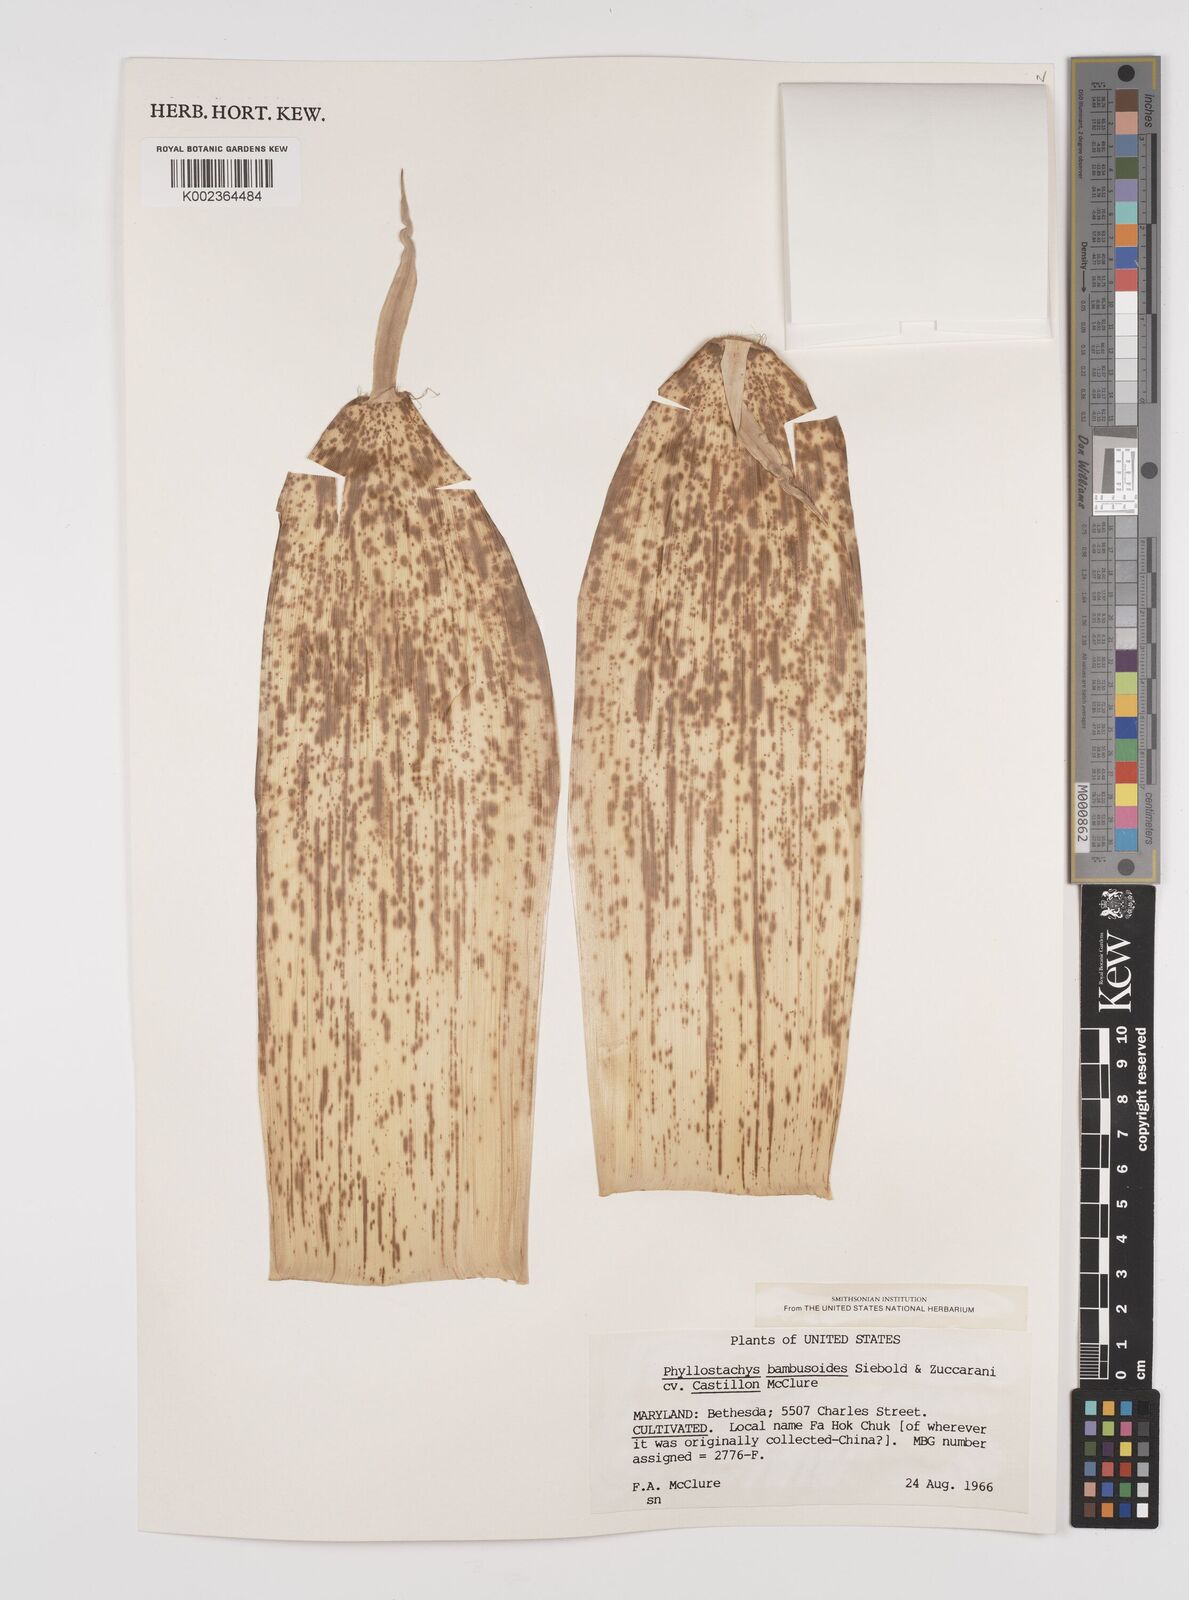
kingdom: Plantae
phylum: Tracheophyta
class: Liliopsida
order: Poales
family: Poaceae
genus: Phyllostachys
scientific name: Phyllostachys reticulata
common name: Bamboo
